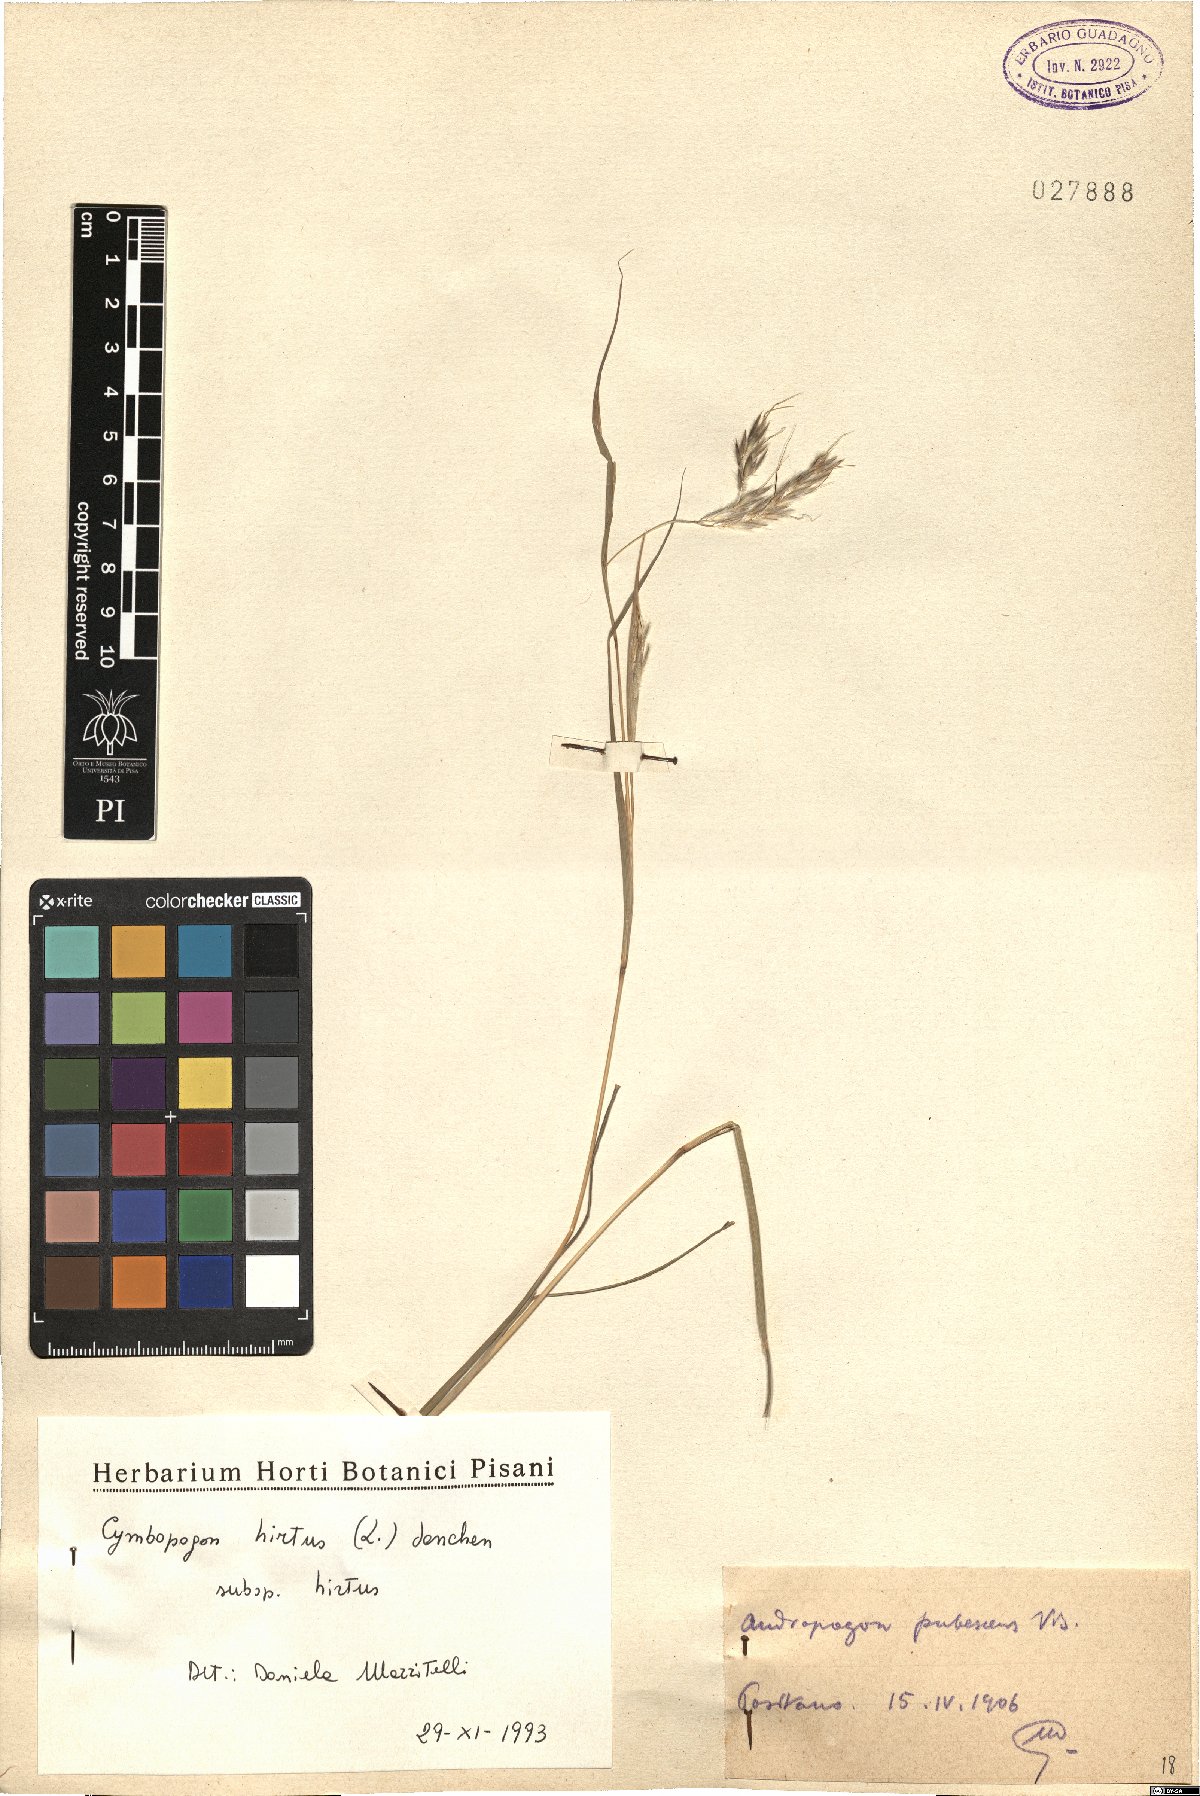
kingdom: Plantae
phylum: Tracheophyta
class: Liliopsida
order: Poales
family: Poaceae
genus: Cymbopogon
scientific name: Cymbopogon hirtus
